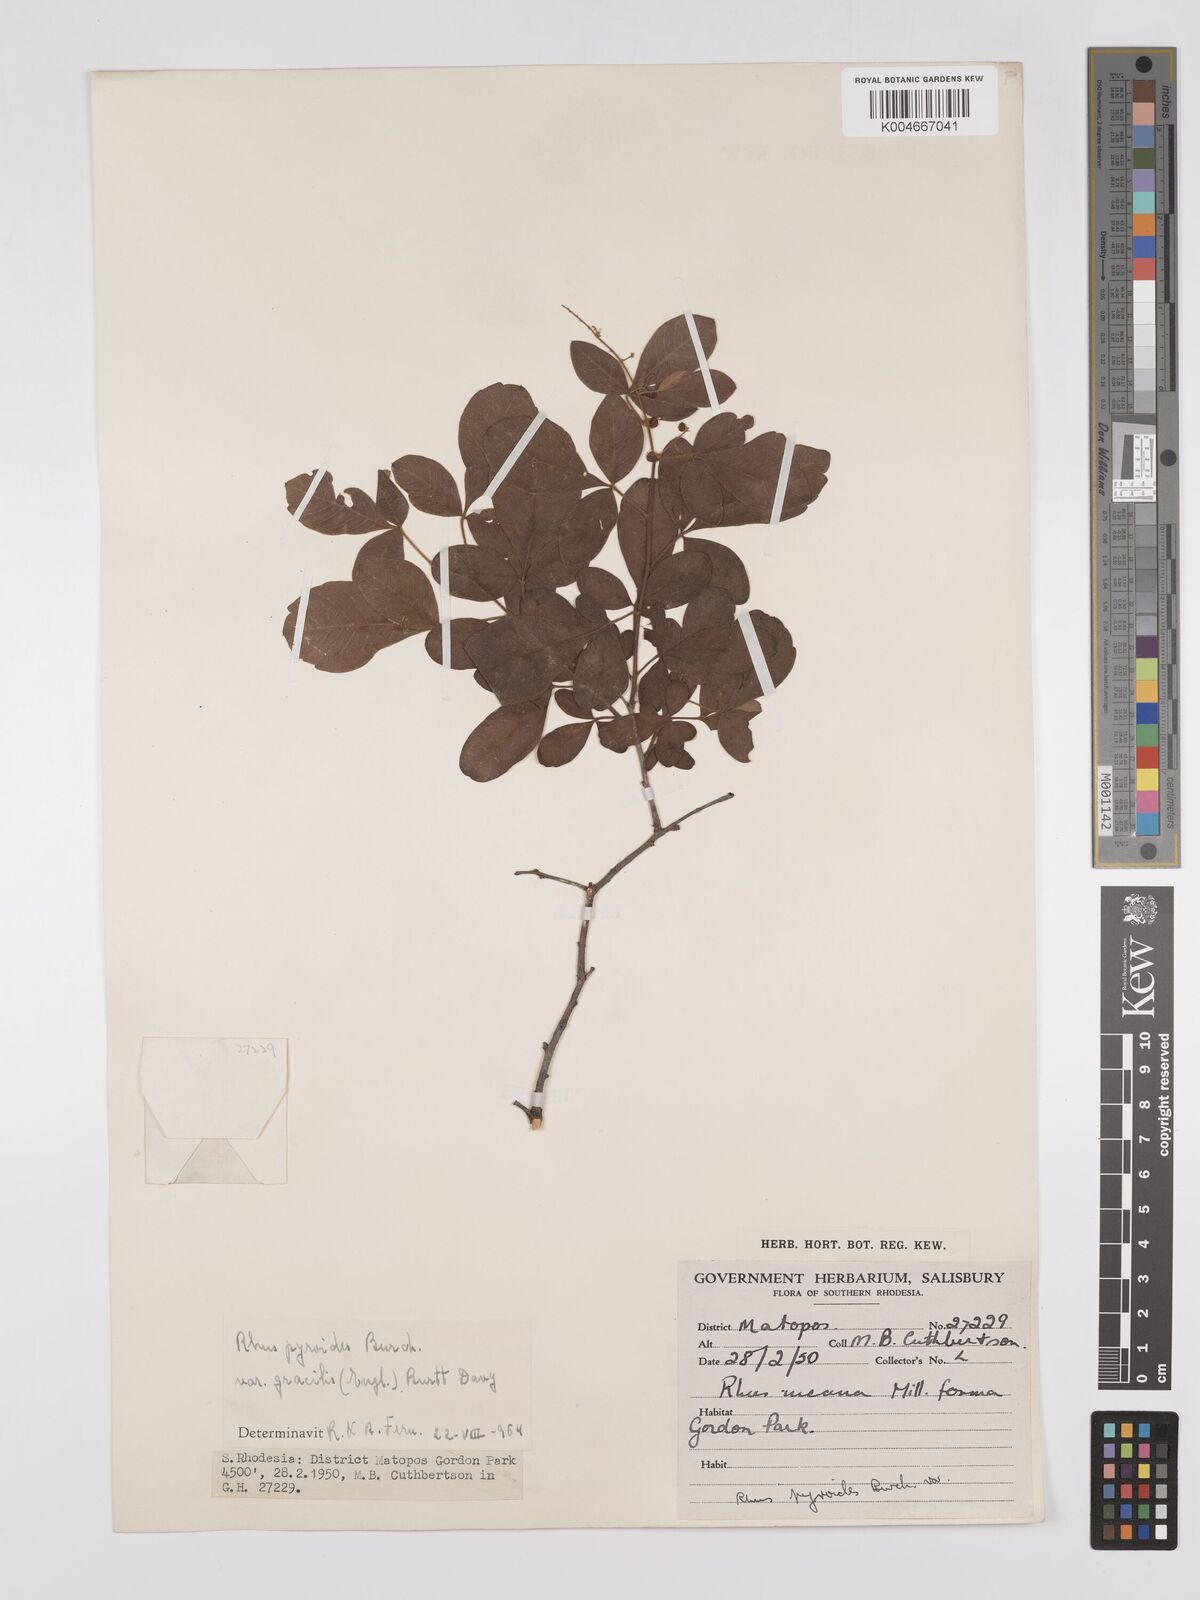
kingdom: Plantae
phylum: Tracheophyta
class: Magnoliopsida
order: Sapindales
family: Anacardiaceae
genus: Rhus
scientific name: Rhus
